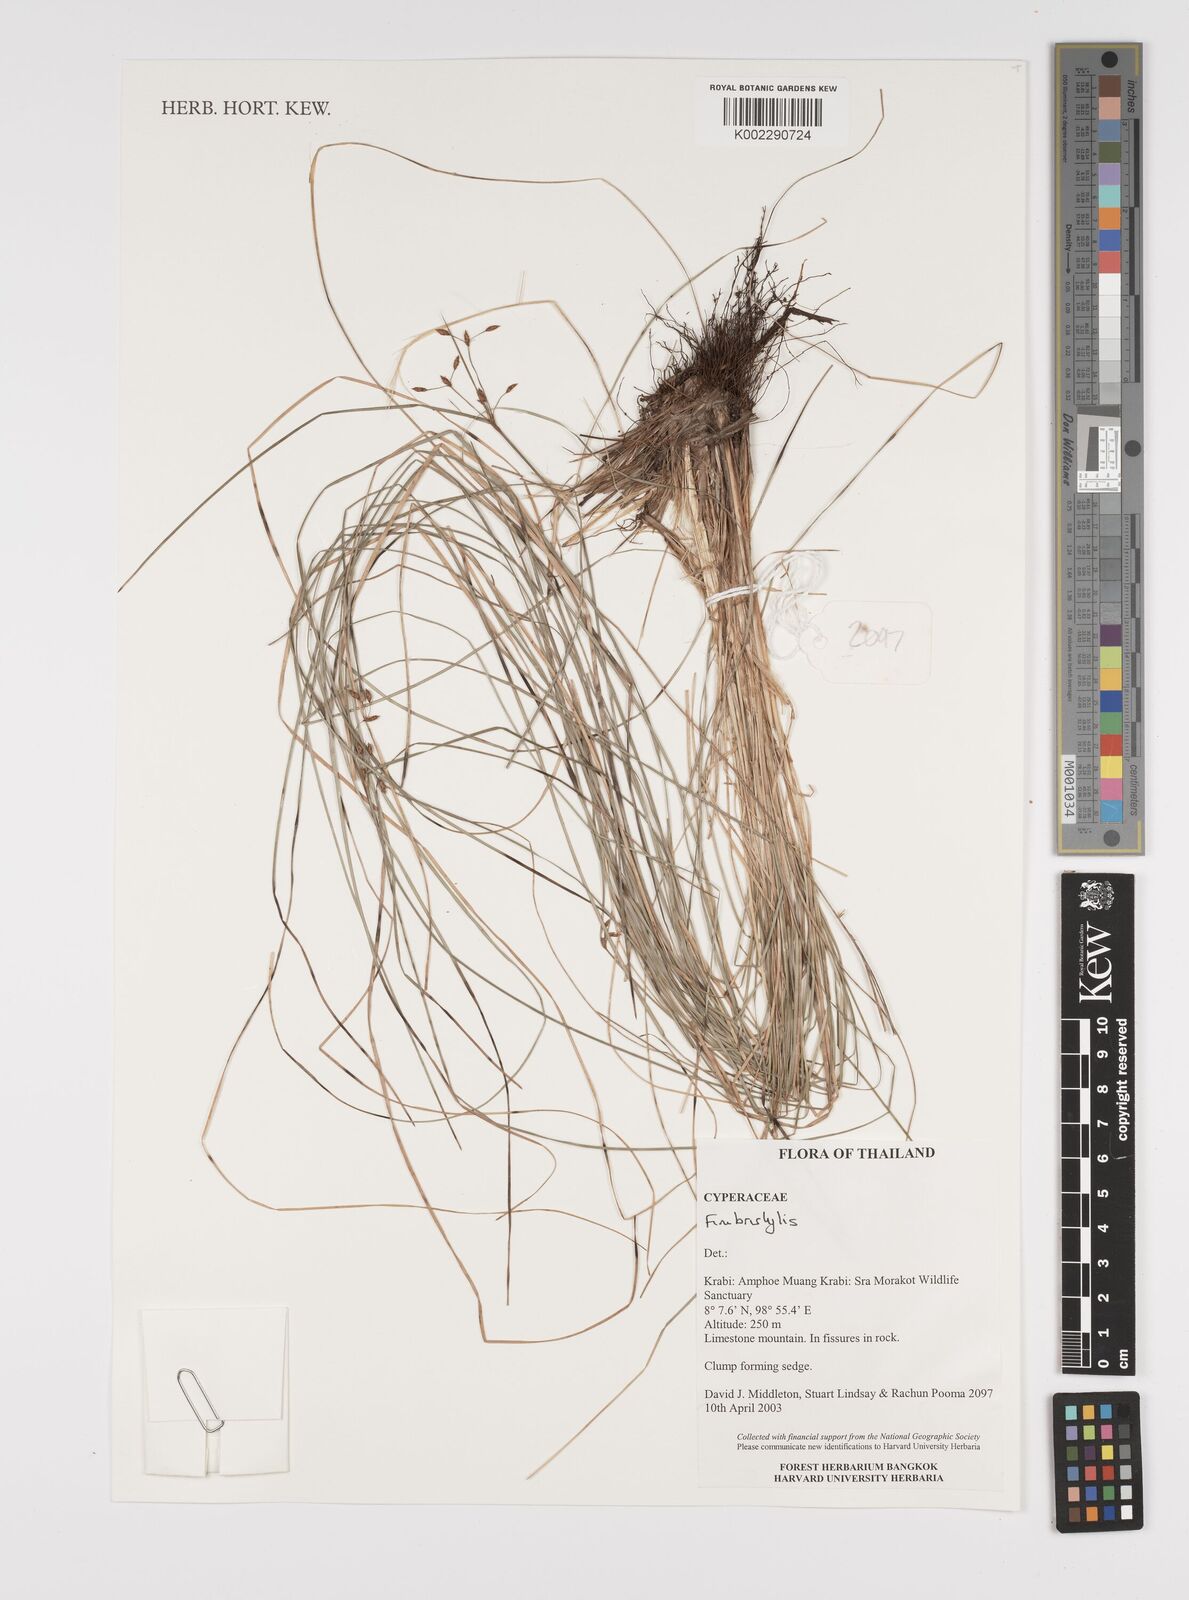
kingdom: Plantae
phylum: Tracheophyta
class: Liliopsida
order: Poales
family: Cyperaceae
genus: Fimbristylis
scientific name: Fimbristylis
